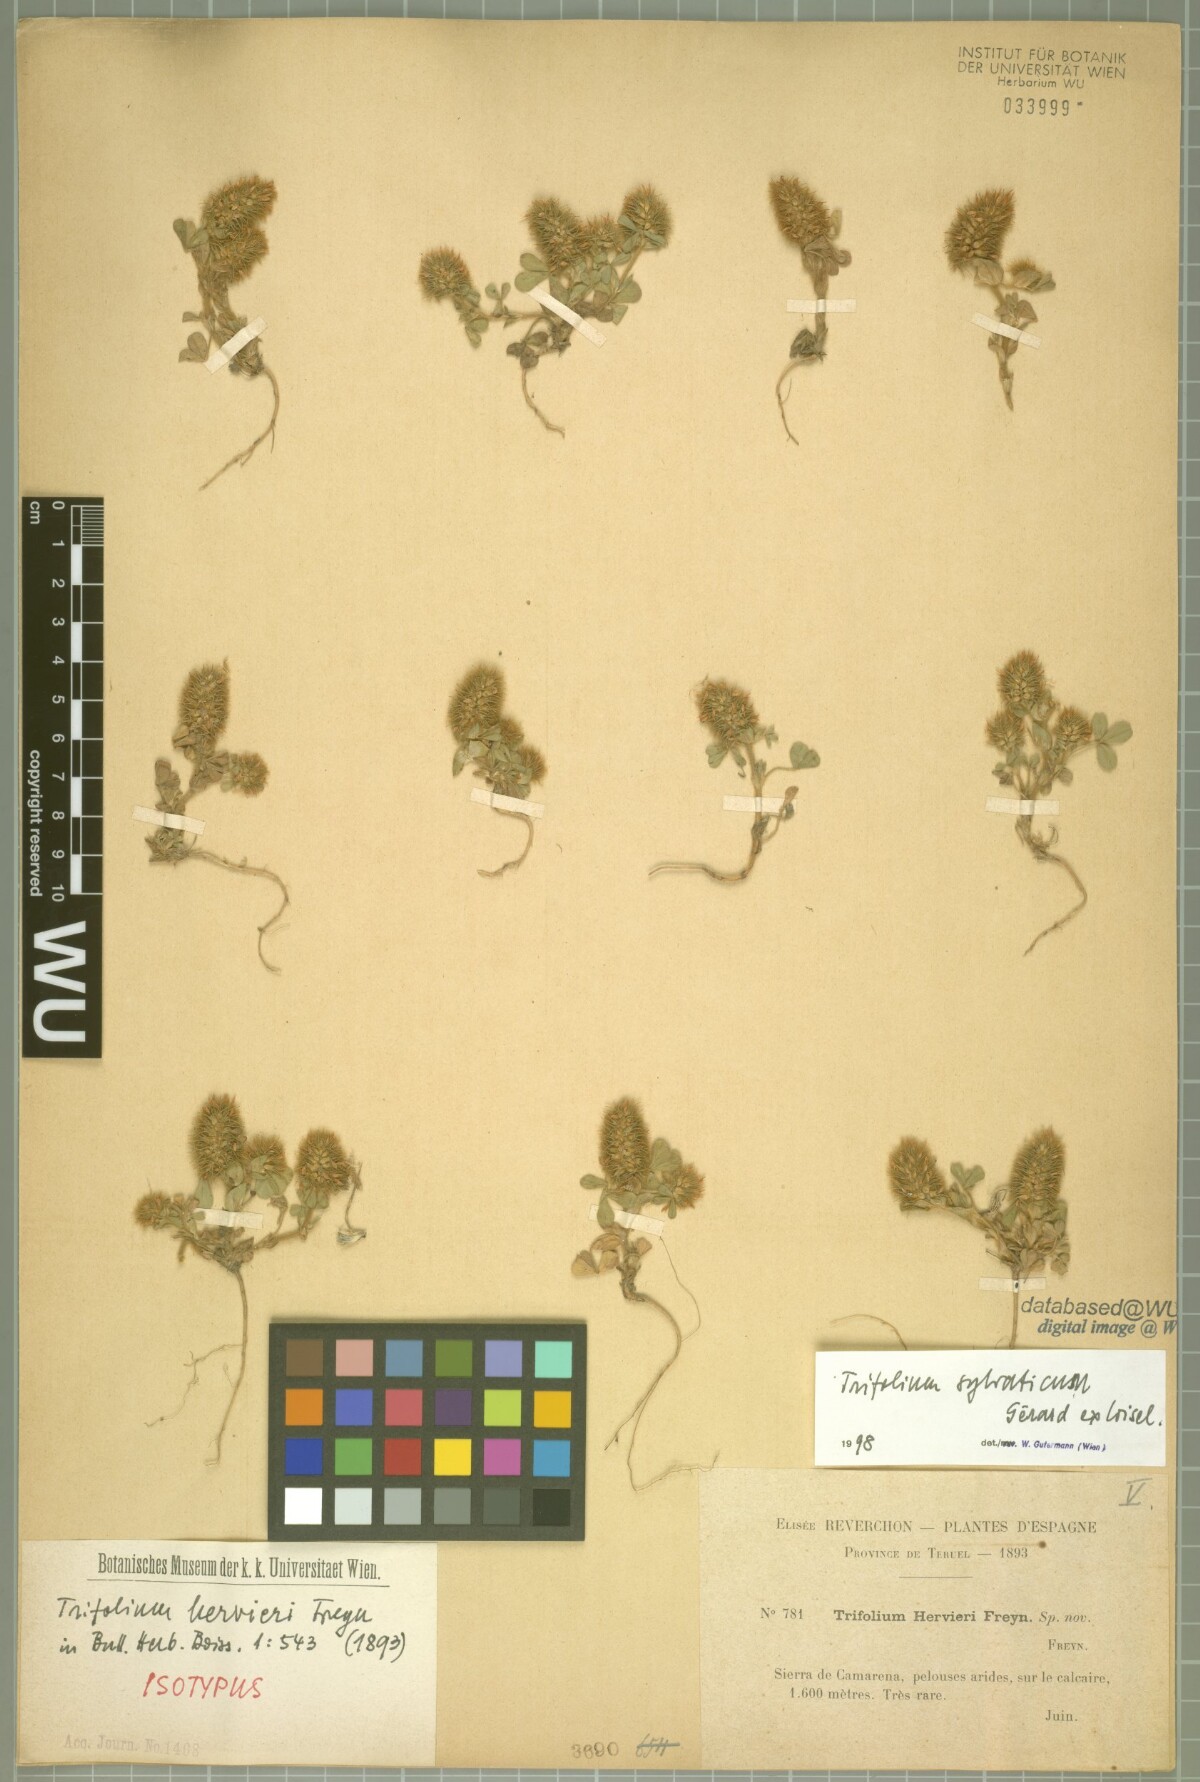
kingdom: Plantae
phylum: Tracheophyta
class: Magnoliopsida
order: Fabales
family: Fabaceae
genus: Trifolium
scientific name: Trifolium sylvaticum
